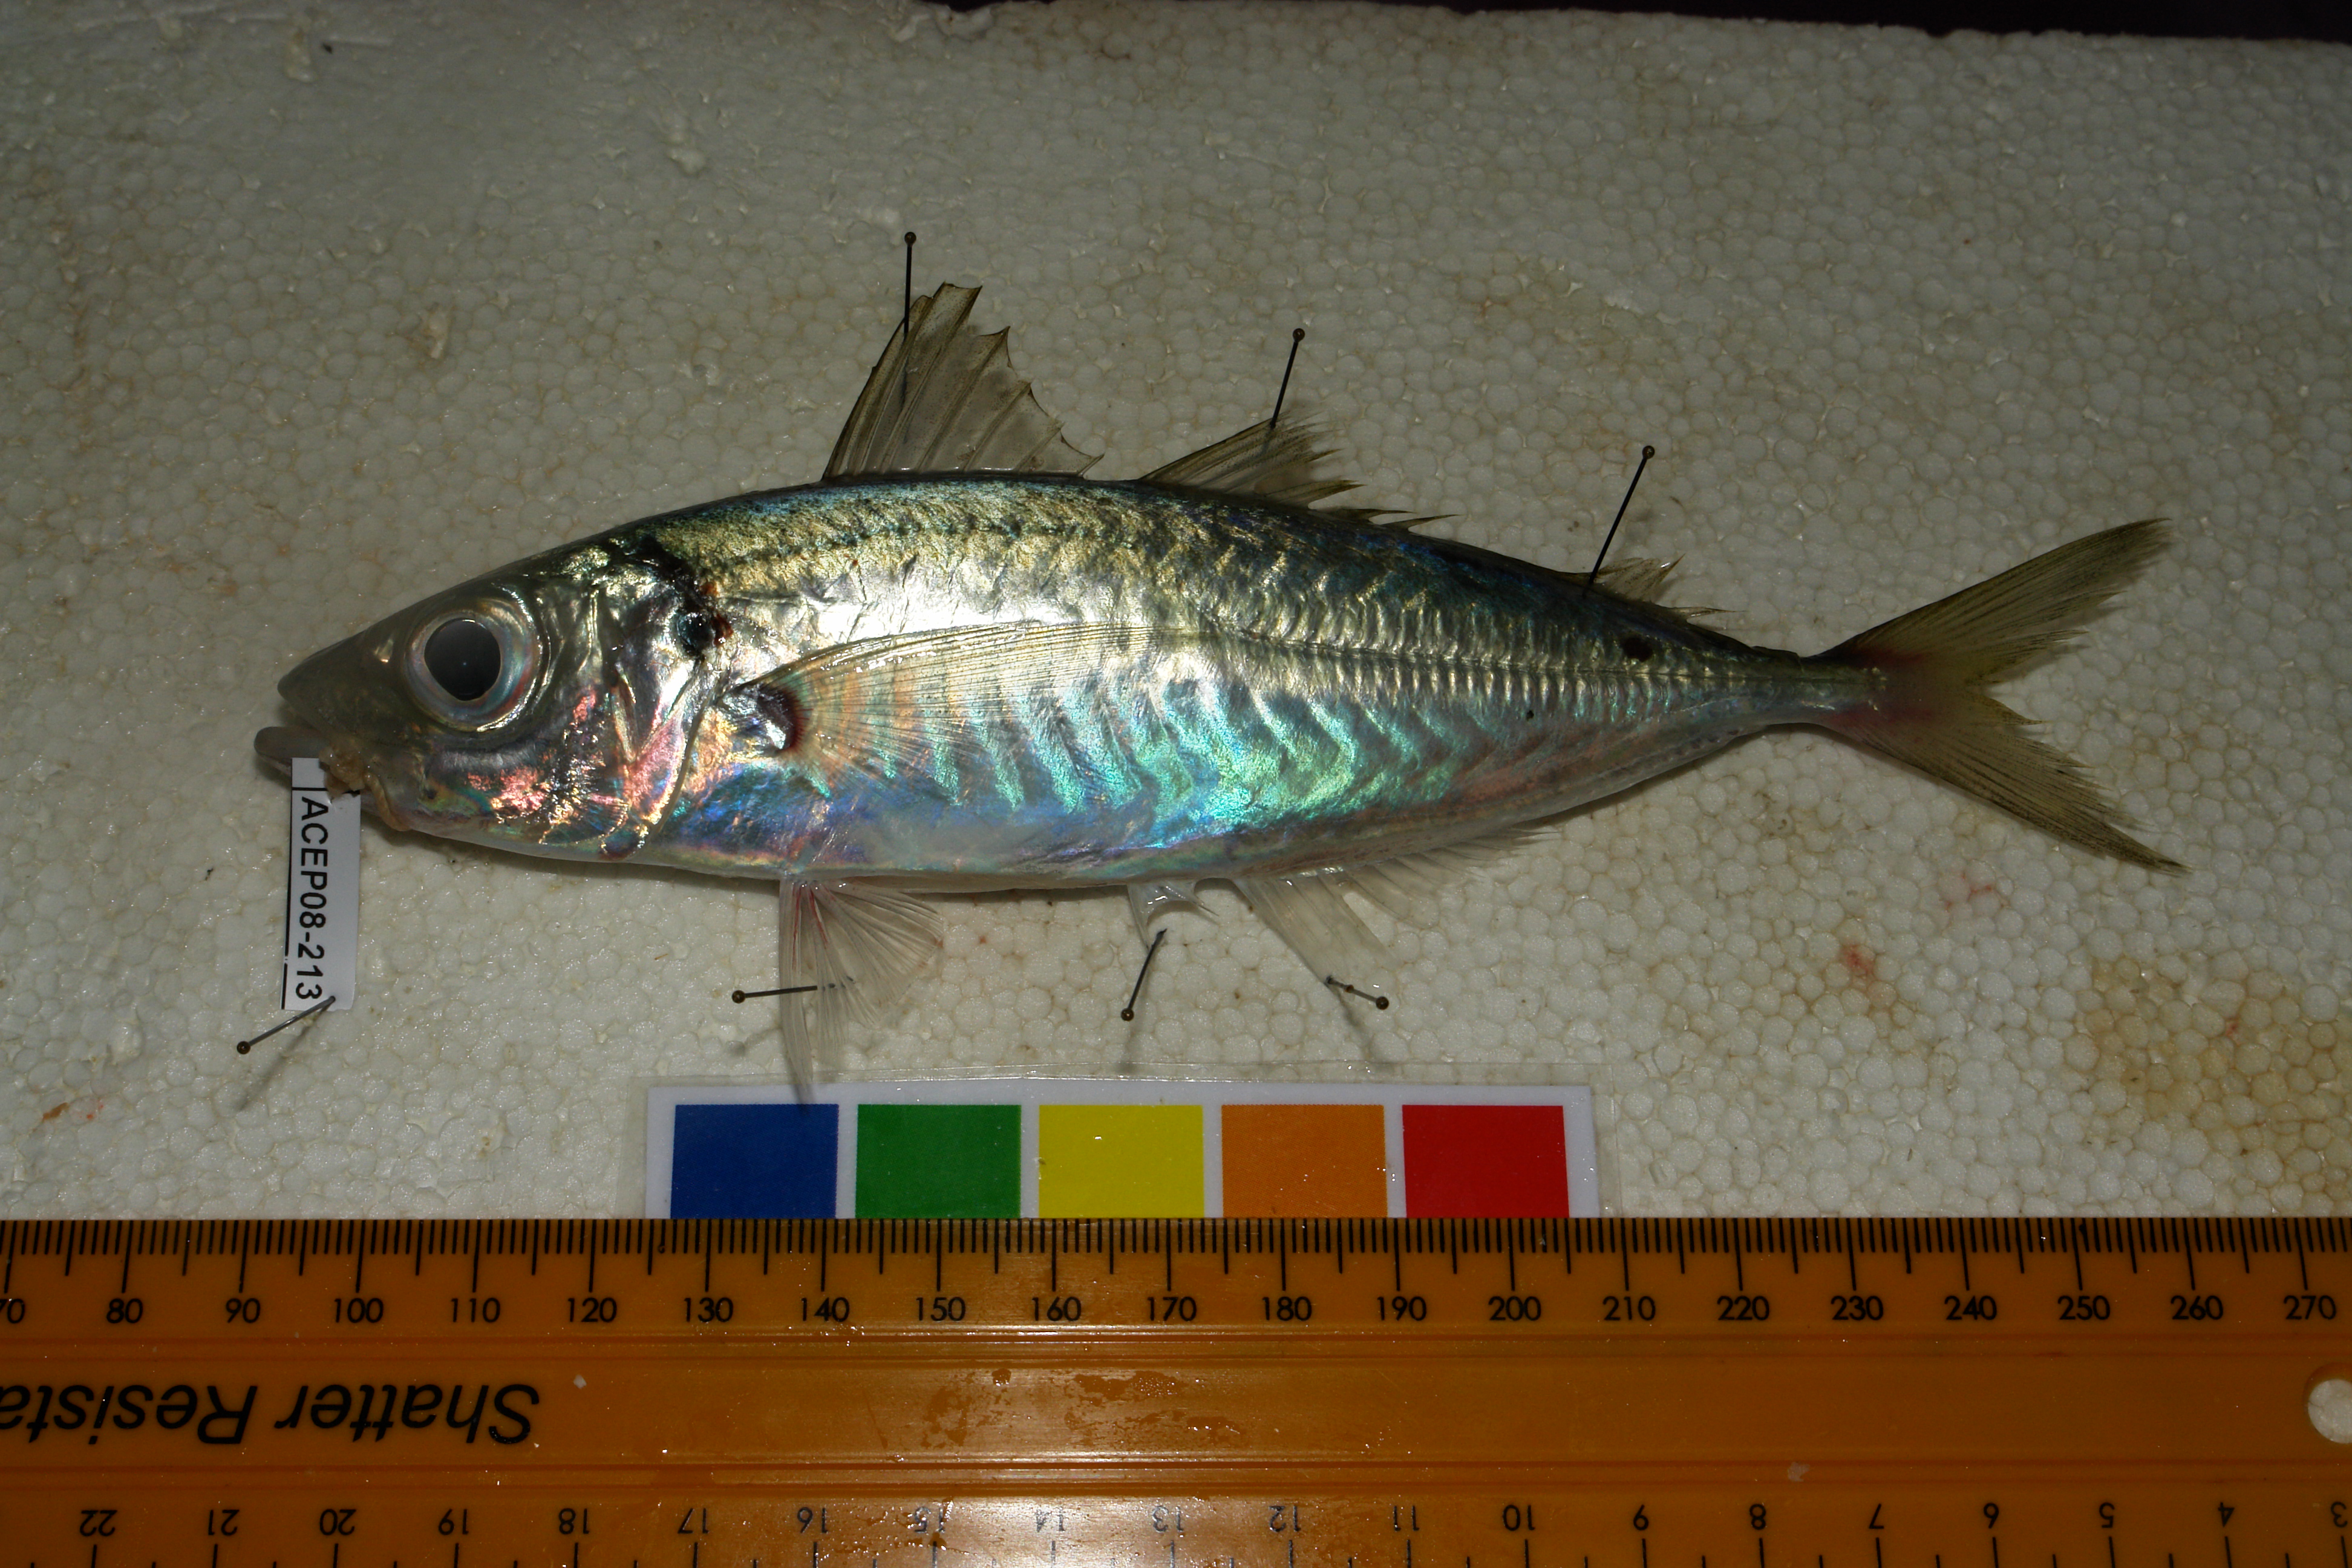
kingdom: Animalia
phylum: Chordata
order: Perciformes
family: Carangidae
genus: Trachurus
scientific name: Trachurus trachurus
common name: Horse mackerel
